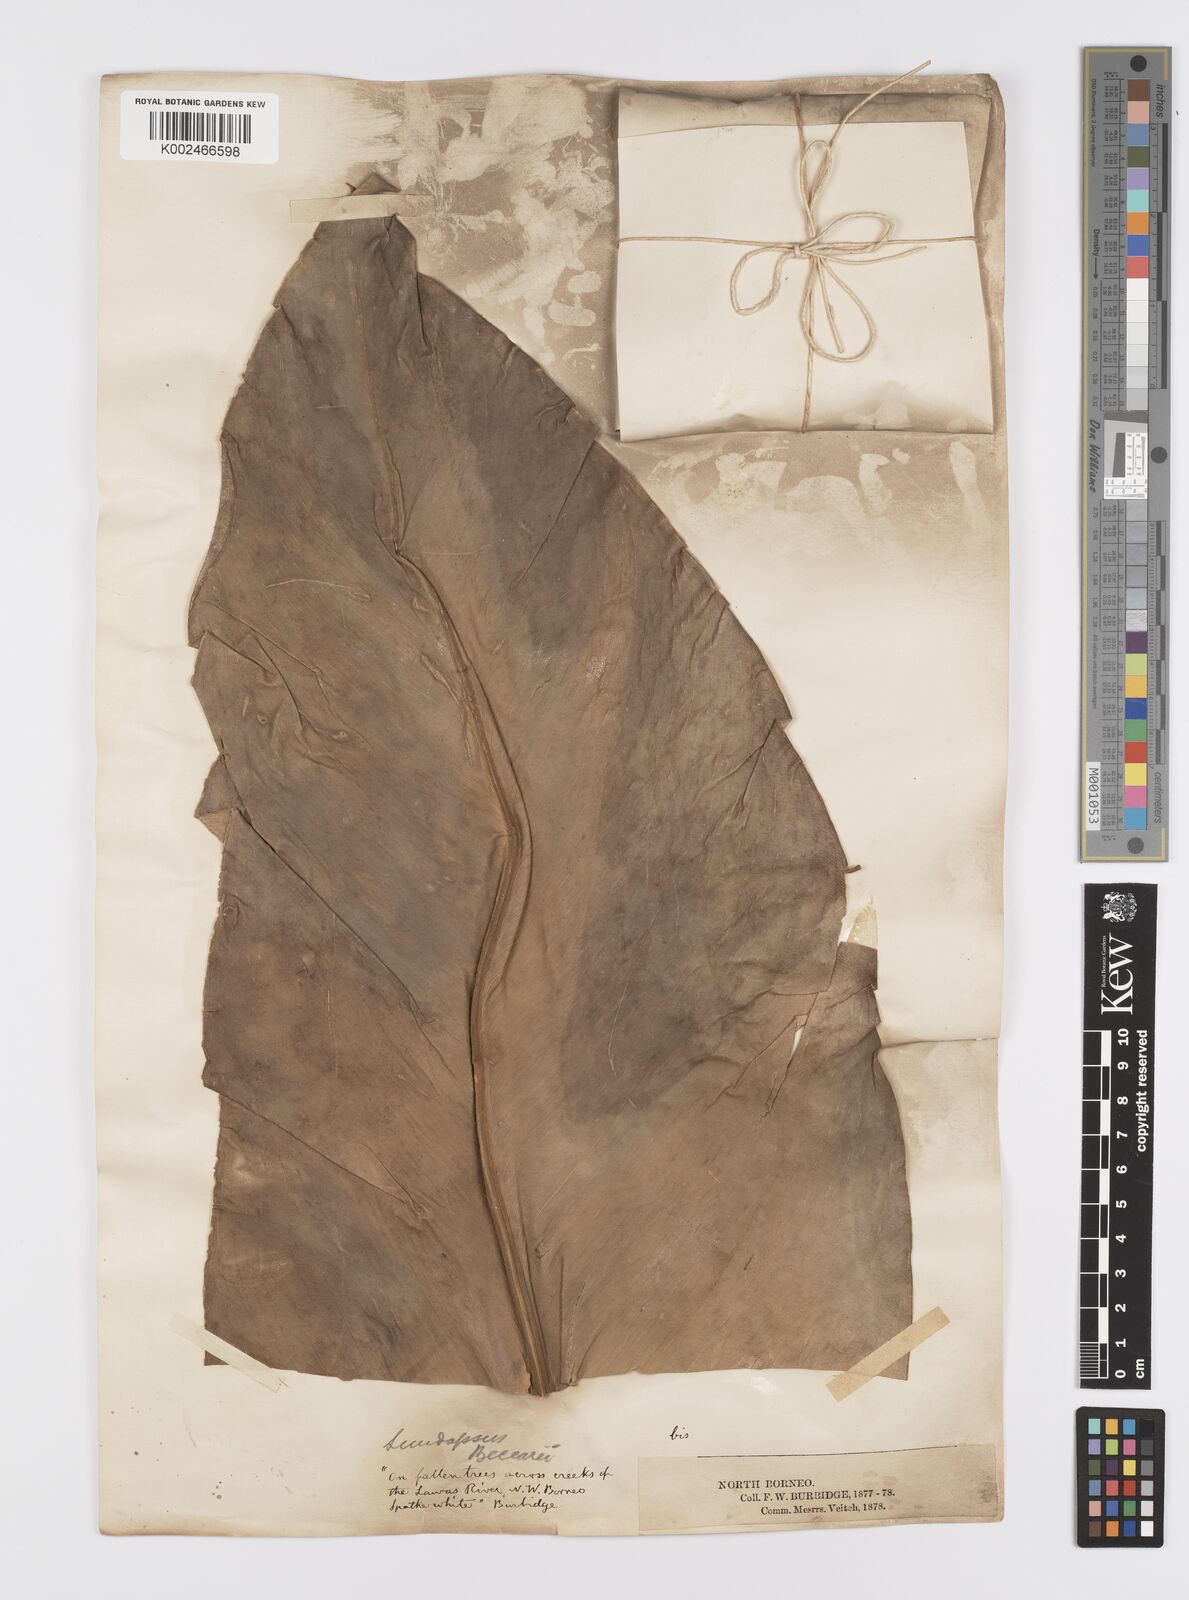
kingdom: Plantae
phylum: Tracheophyta
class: Liliopsida
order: Alismatales
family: Araceae
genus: Scindapsus
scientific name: Scindapsus beccarii
